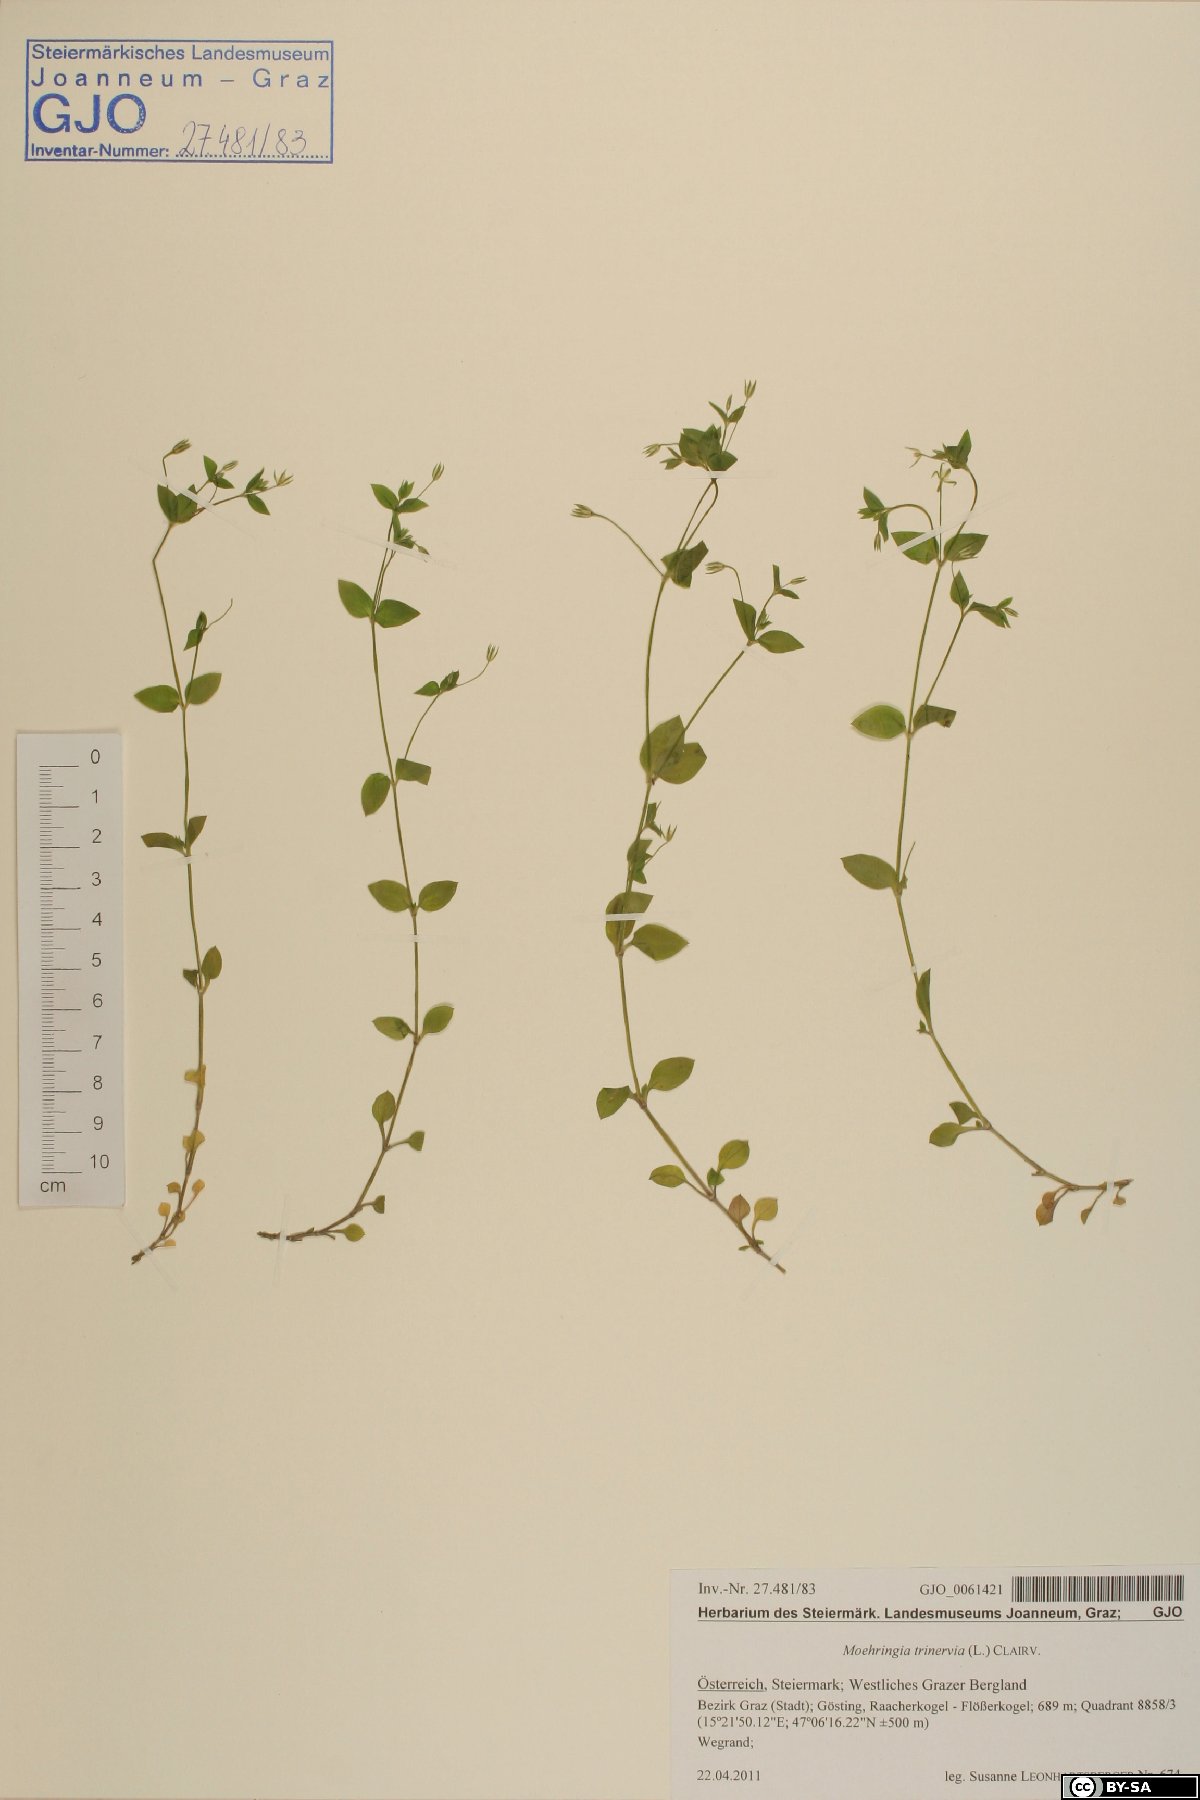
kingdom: Plantae
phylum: Tracheophyta
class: Magnoliopsida
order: Caryophyllales
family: Caryophyllaceae
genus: Moehringia
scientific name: Moehringia trinervia
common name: Three-nerved sandwort
